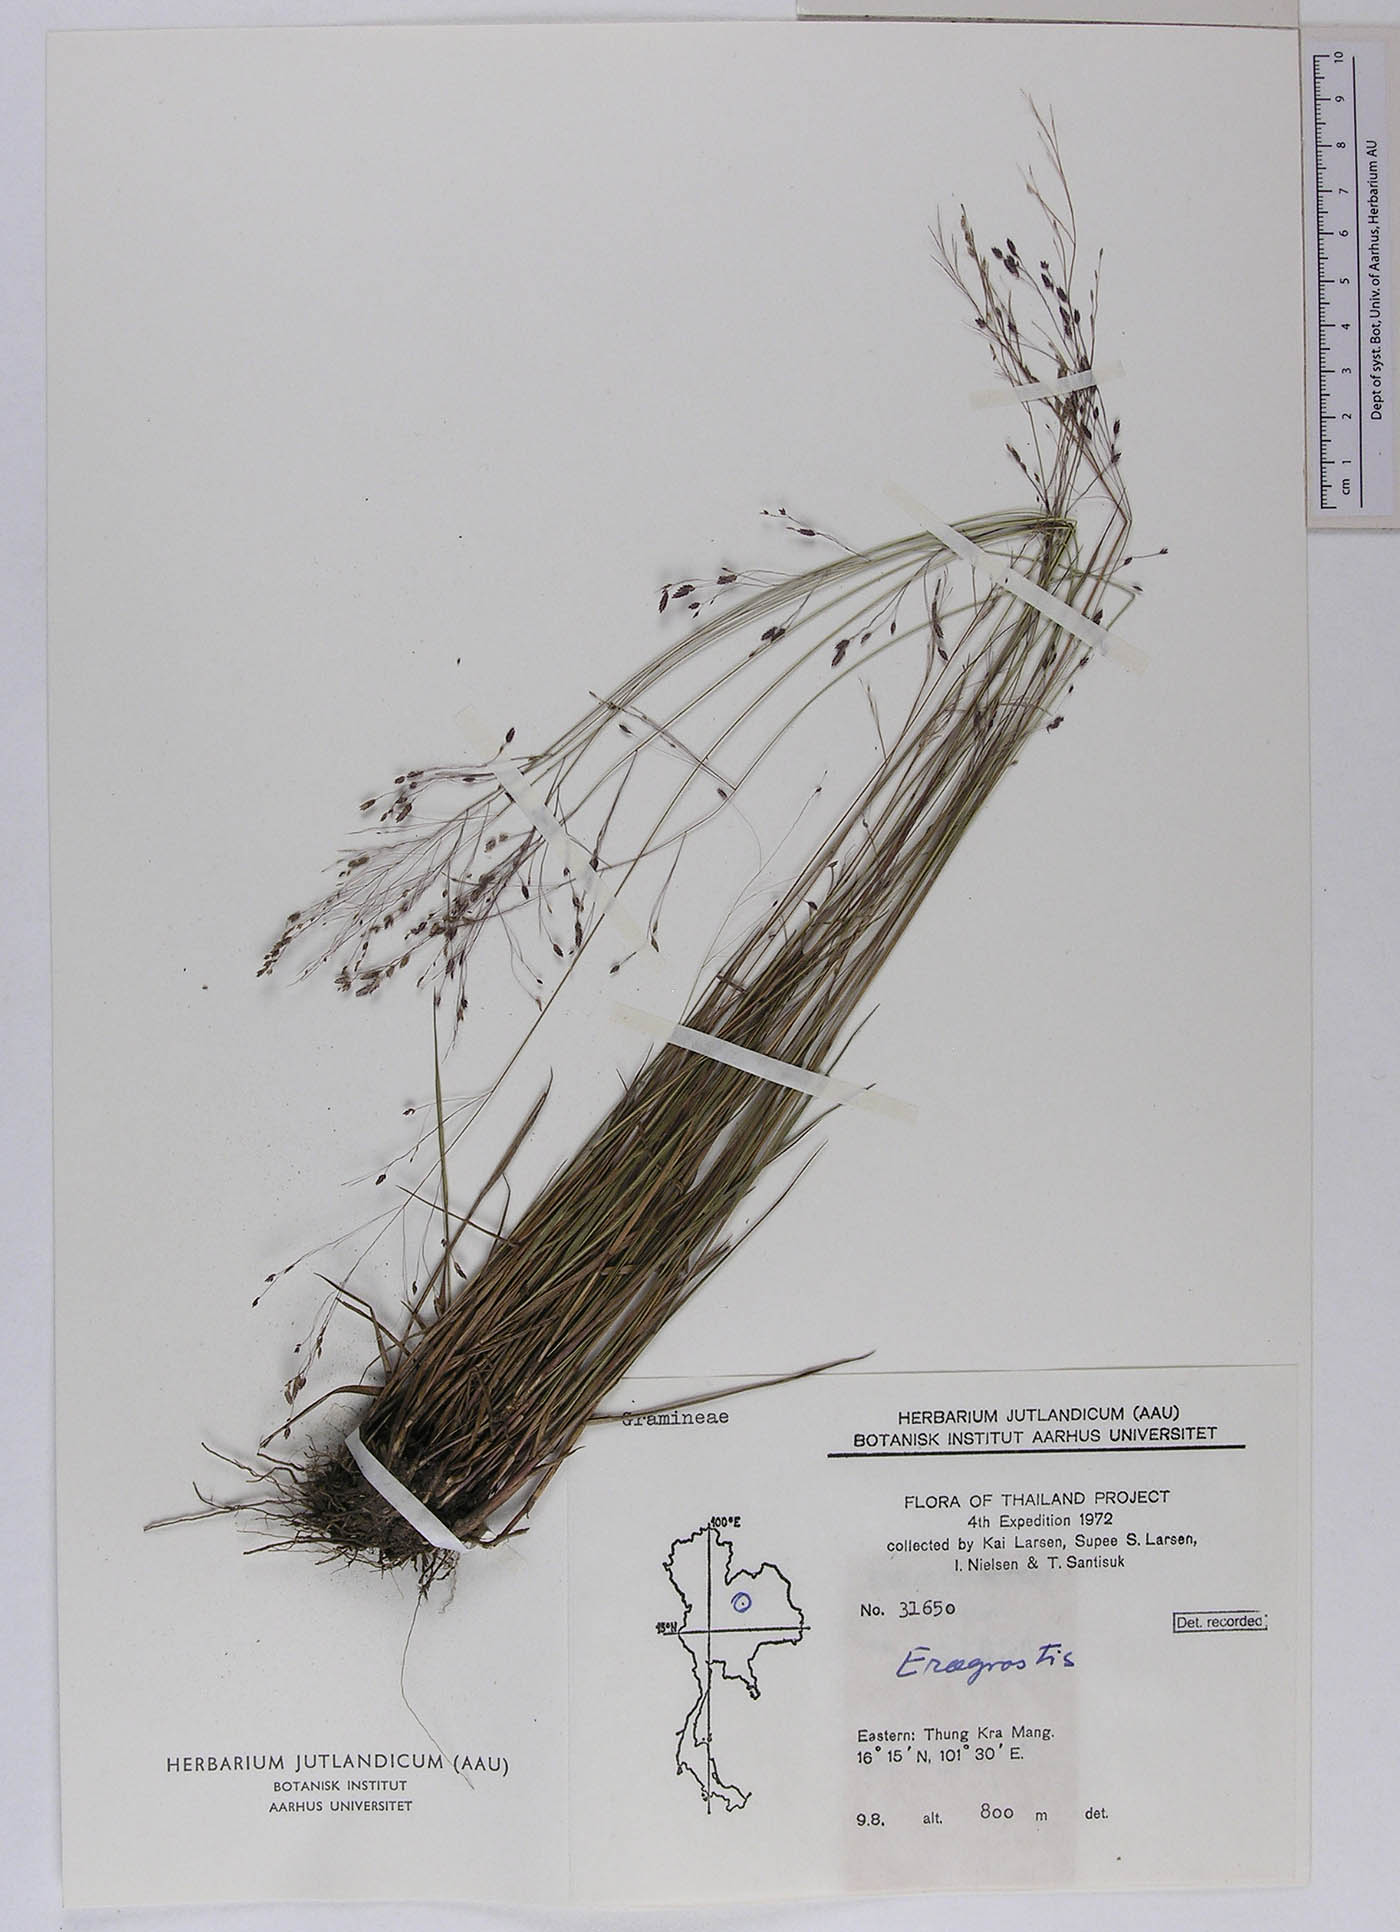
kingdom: Plantae
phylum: Tracheophyta
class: Liliopsida
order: Poales
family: Poaceae
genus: Eragrostis
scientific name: Eragrostis burmanica
